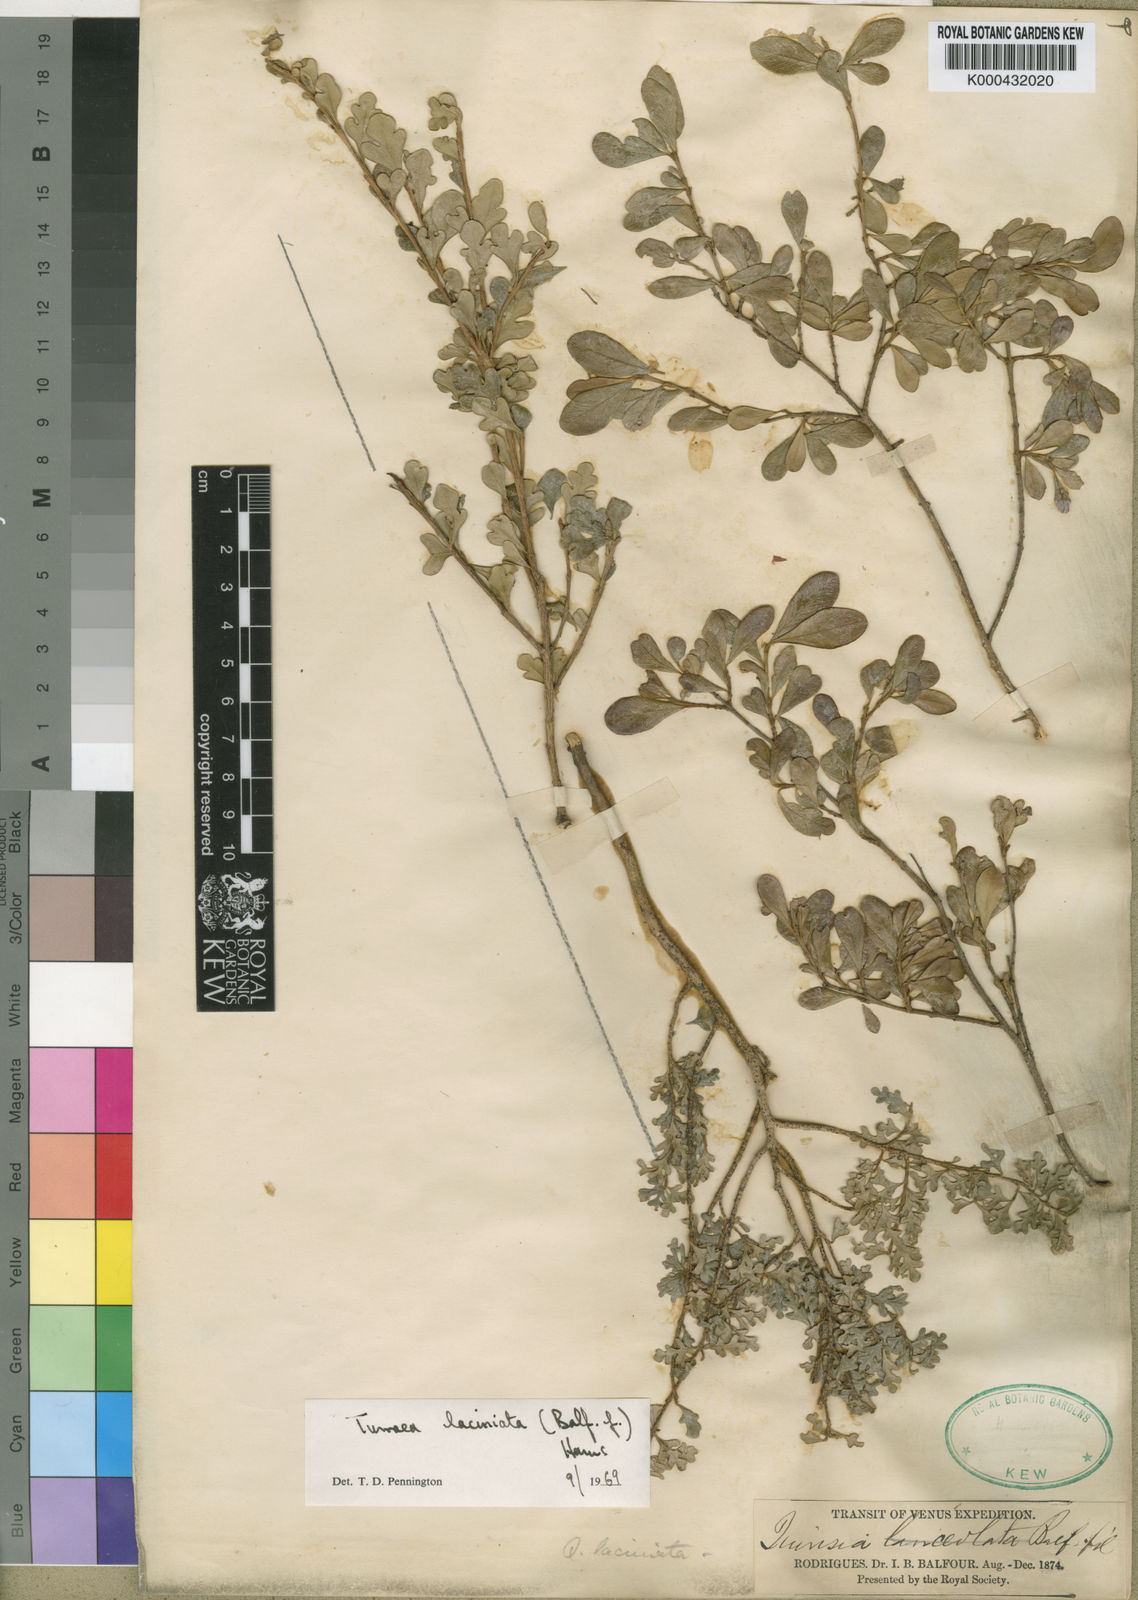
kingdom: Plantae
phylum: Tracheophyta
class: Magnoliopsida
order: Sapindales
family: Meliaceae
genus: Turraea
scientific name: Turraea laciniata
